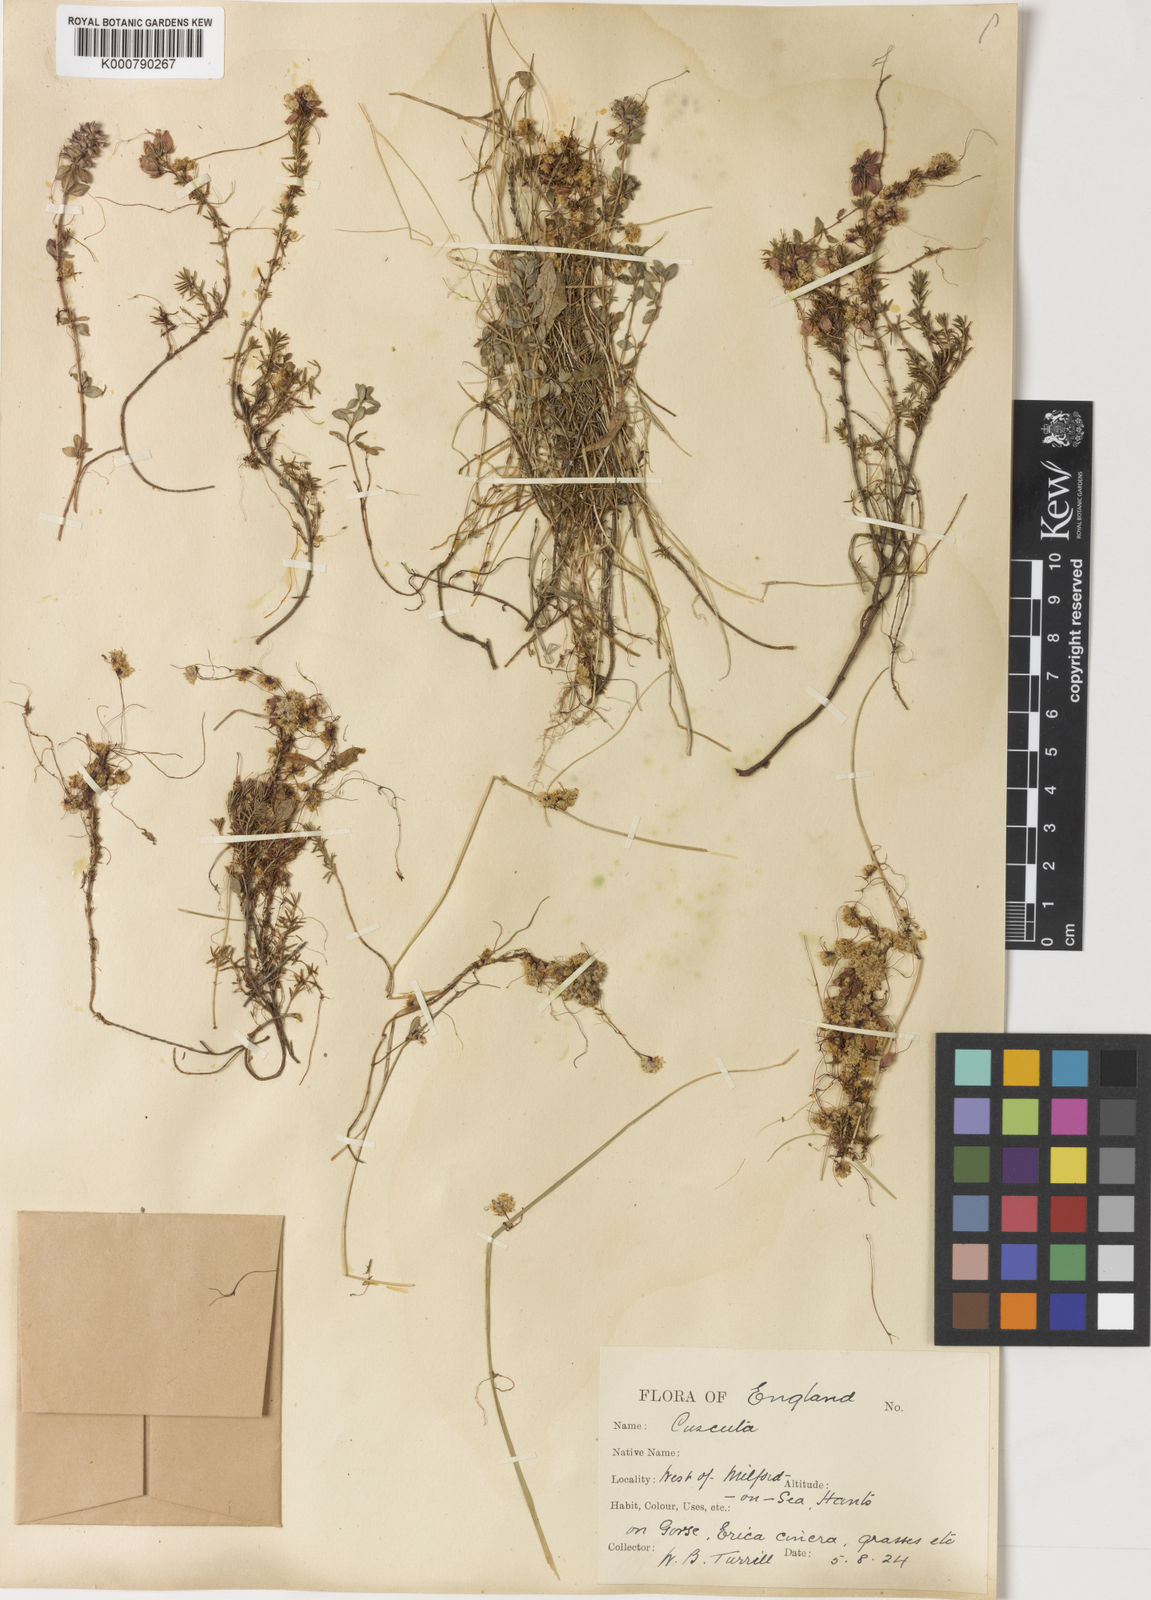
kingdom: Plantae
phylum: Tracheophyta
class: Magnoliopsida
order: Solanales
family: Convolvulaceae
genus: Cuscuta
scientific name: Cuscuta epithymum
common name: Clover dodder
